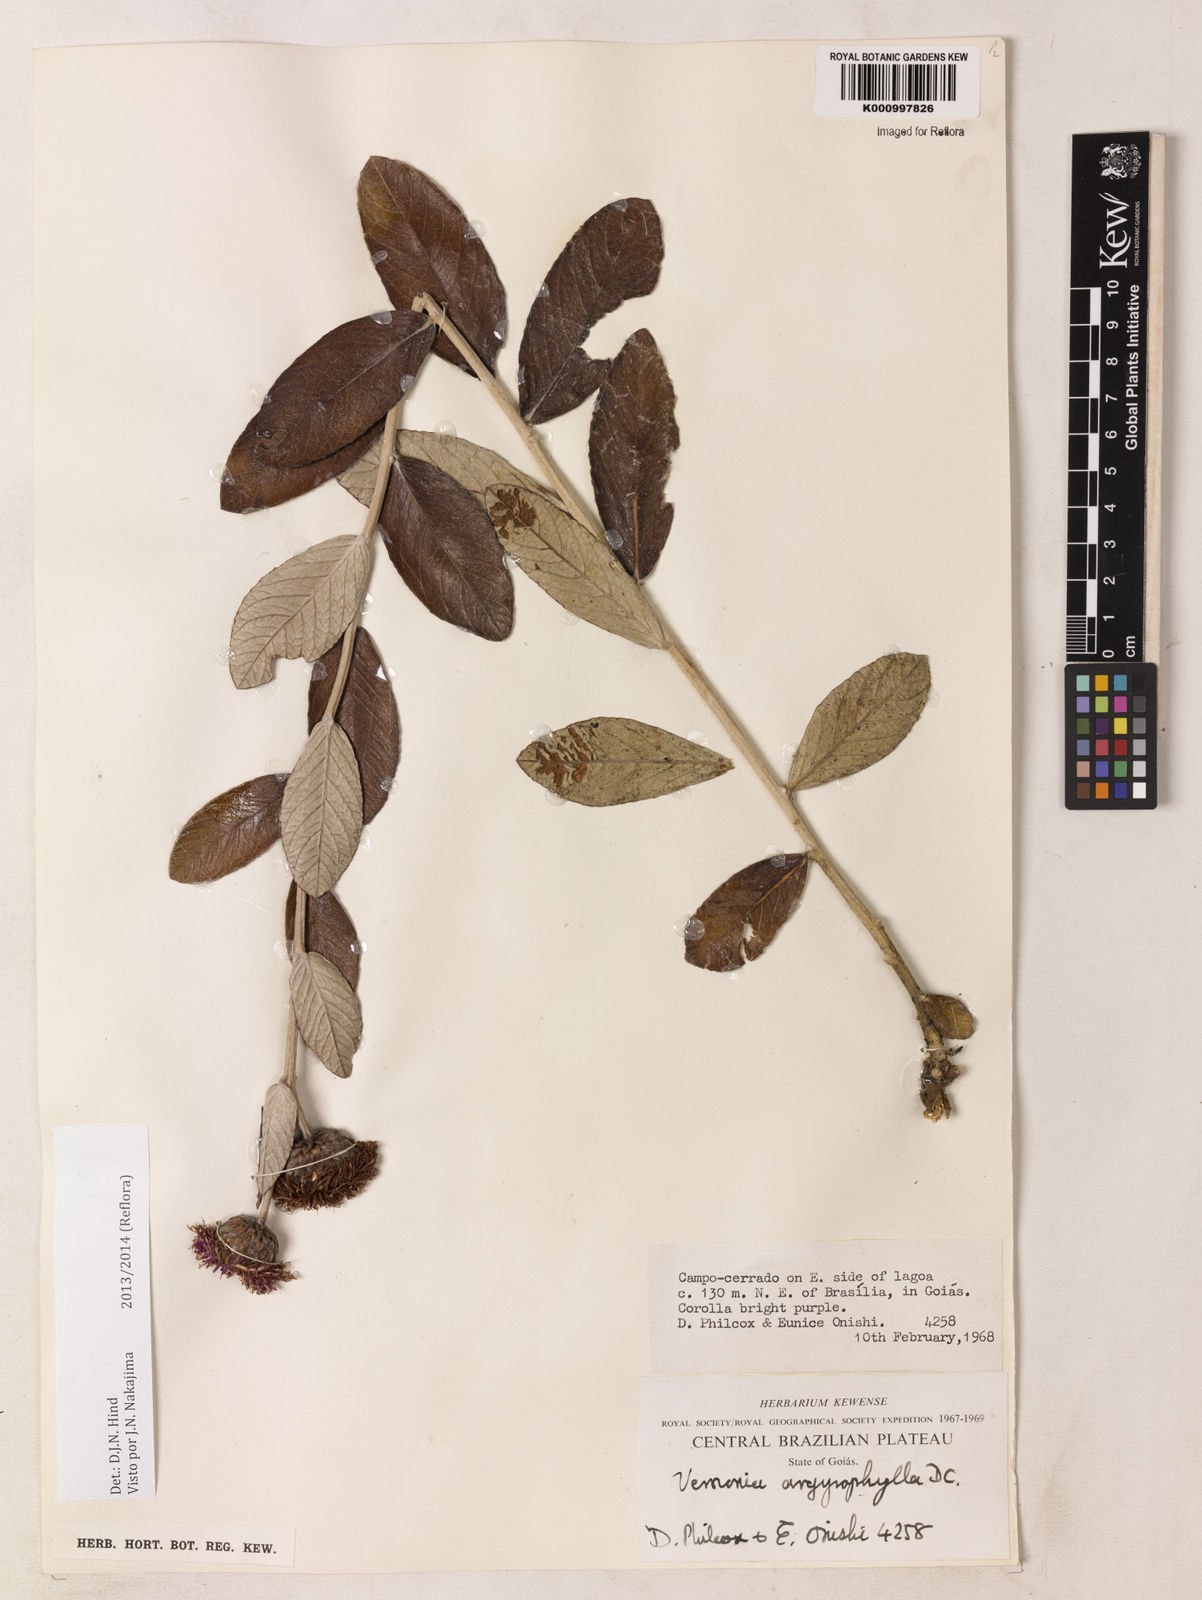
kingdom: Plantae
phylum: Tracheophyta
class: Magnoliopsida
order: Asterales
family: Asteraceae
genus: Lessingianthus
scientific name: Lessingianthus argyrophyllus
